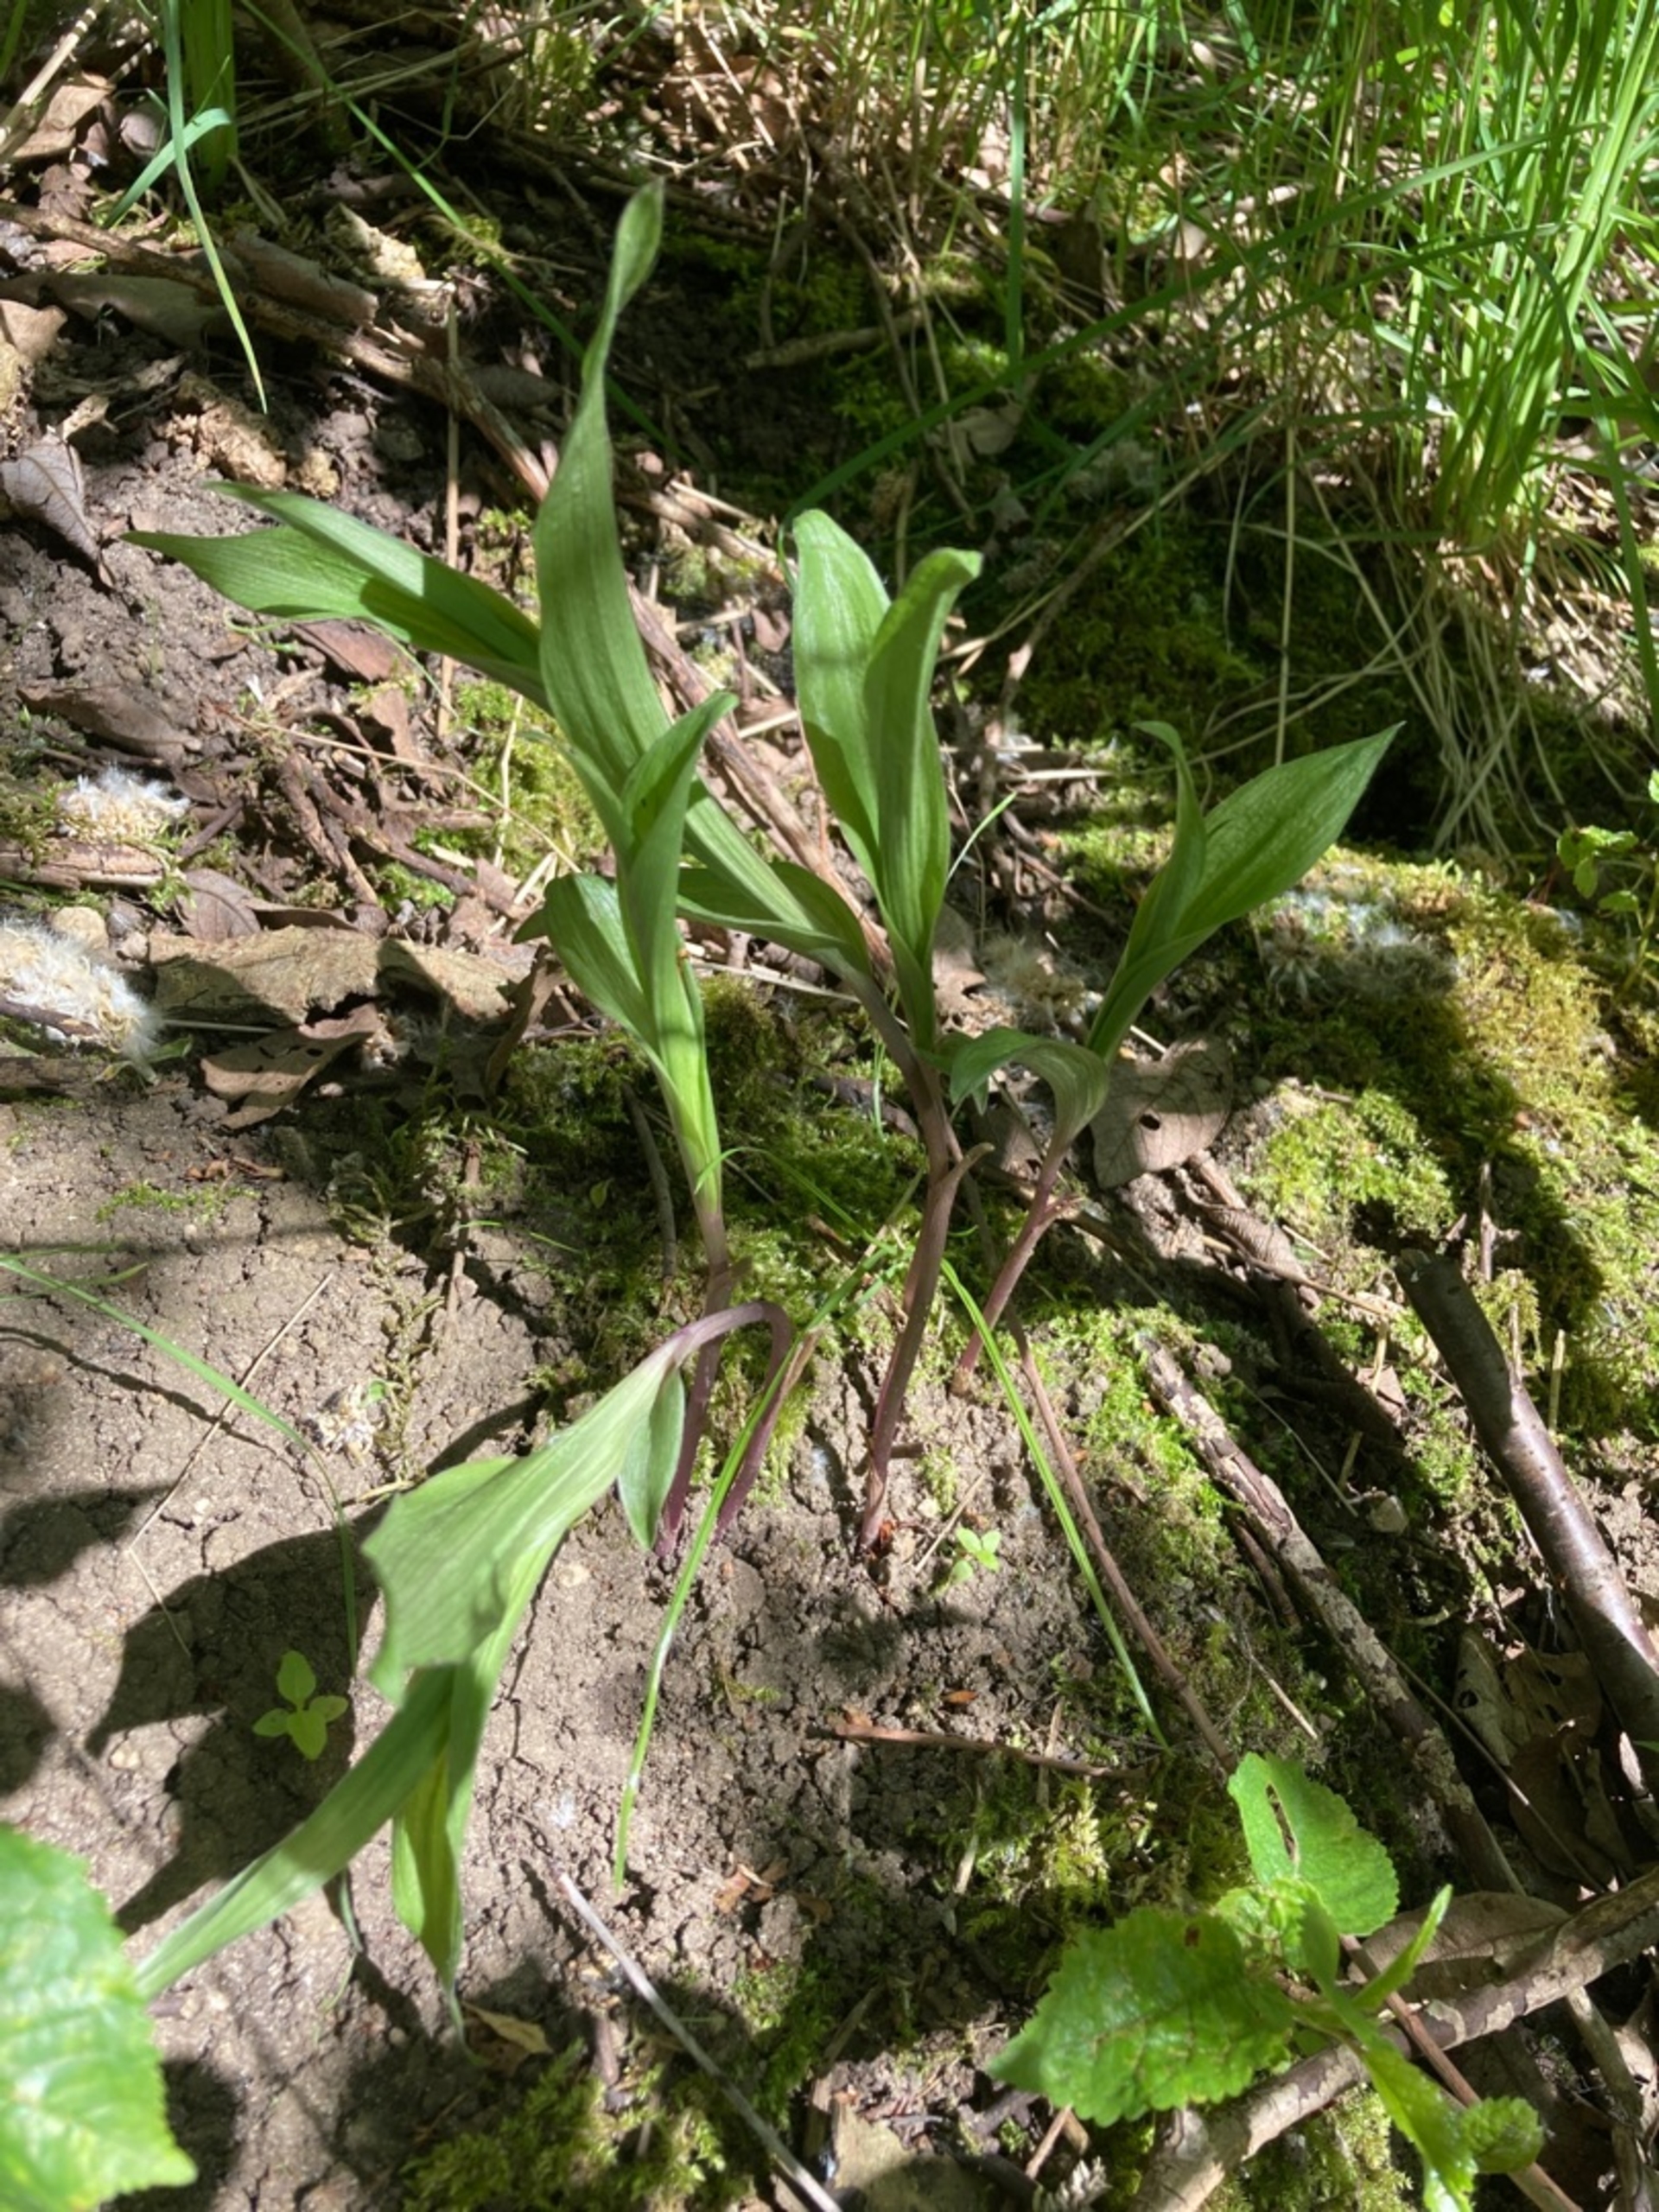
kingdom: Plantae
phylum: Tracheophyta
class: Liliopsida
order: Asparagales
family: Orchidaceae
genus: Epipactis
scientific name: Epipactis helleborine
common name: Skov-hullæbe
